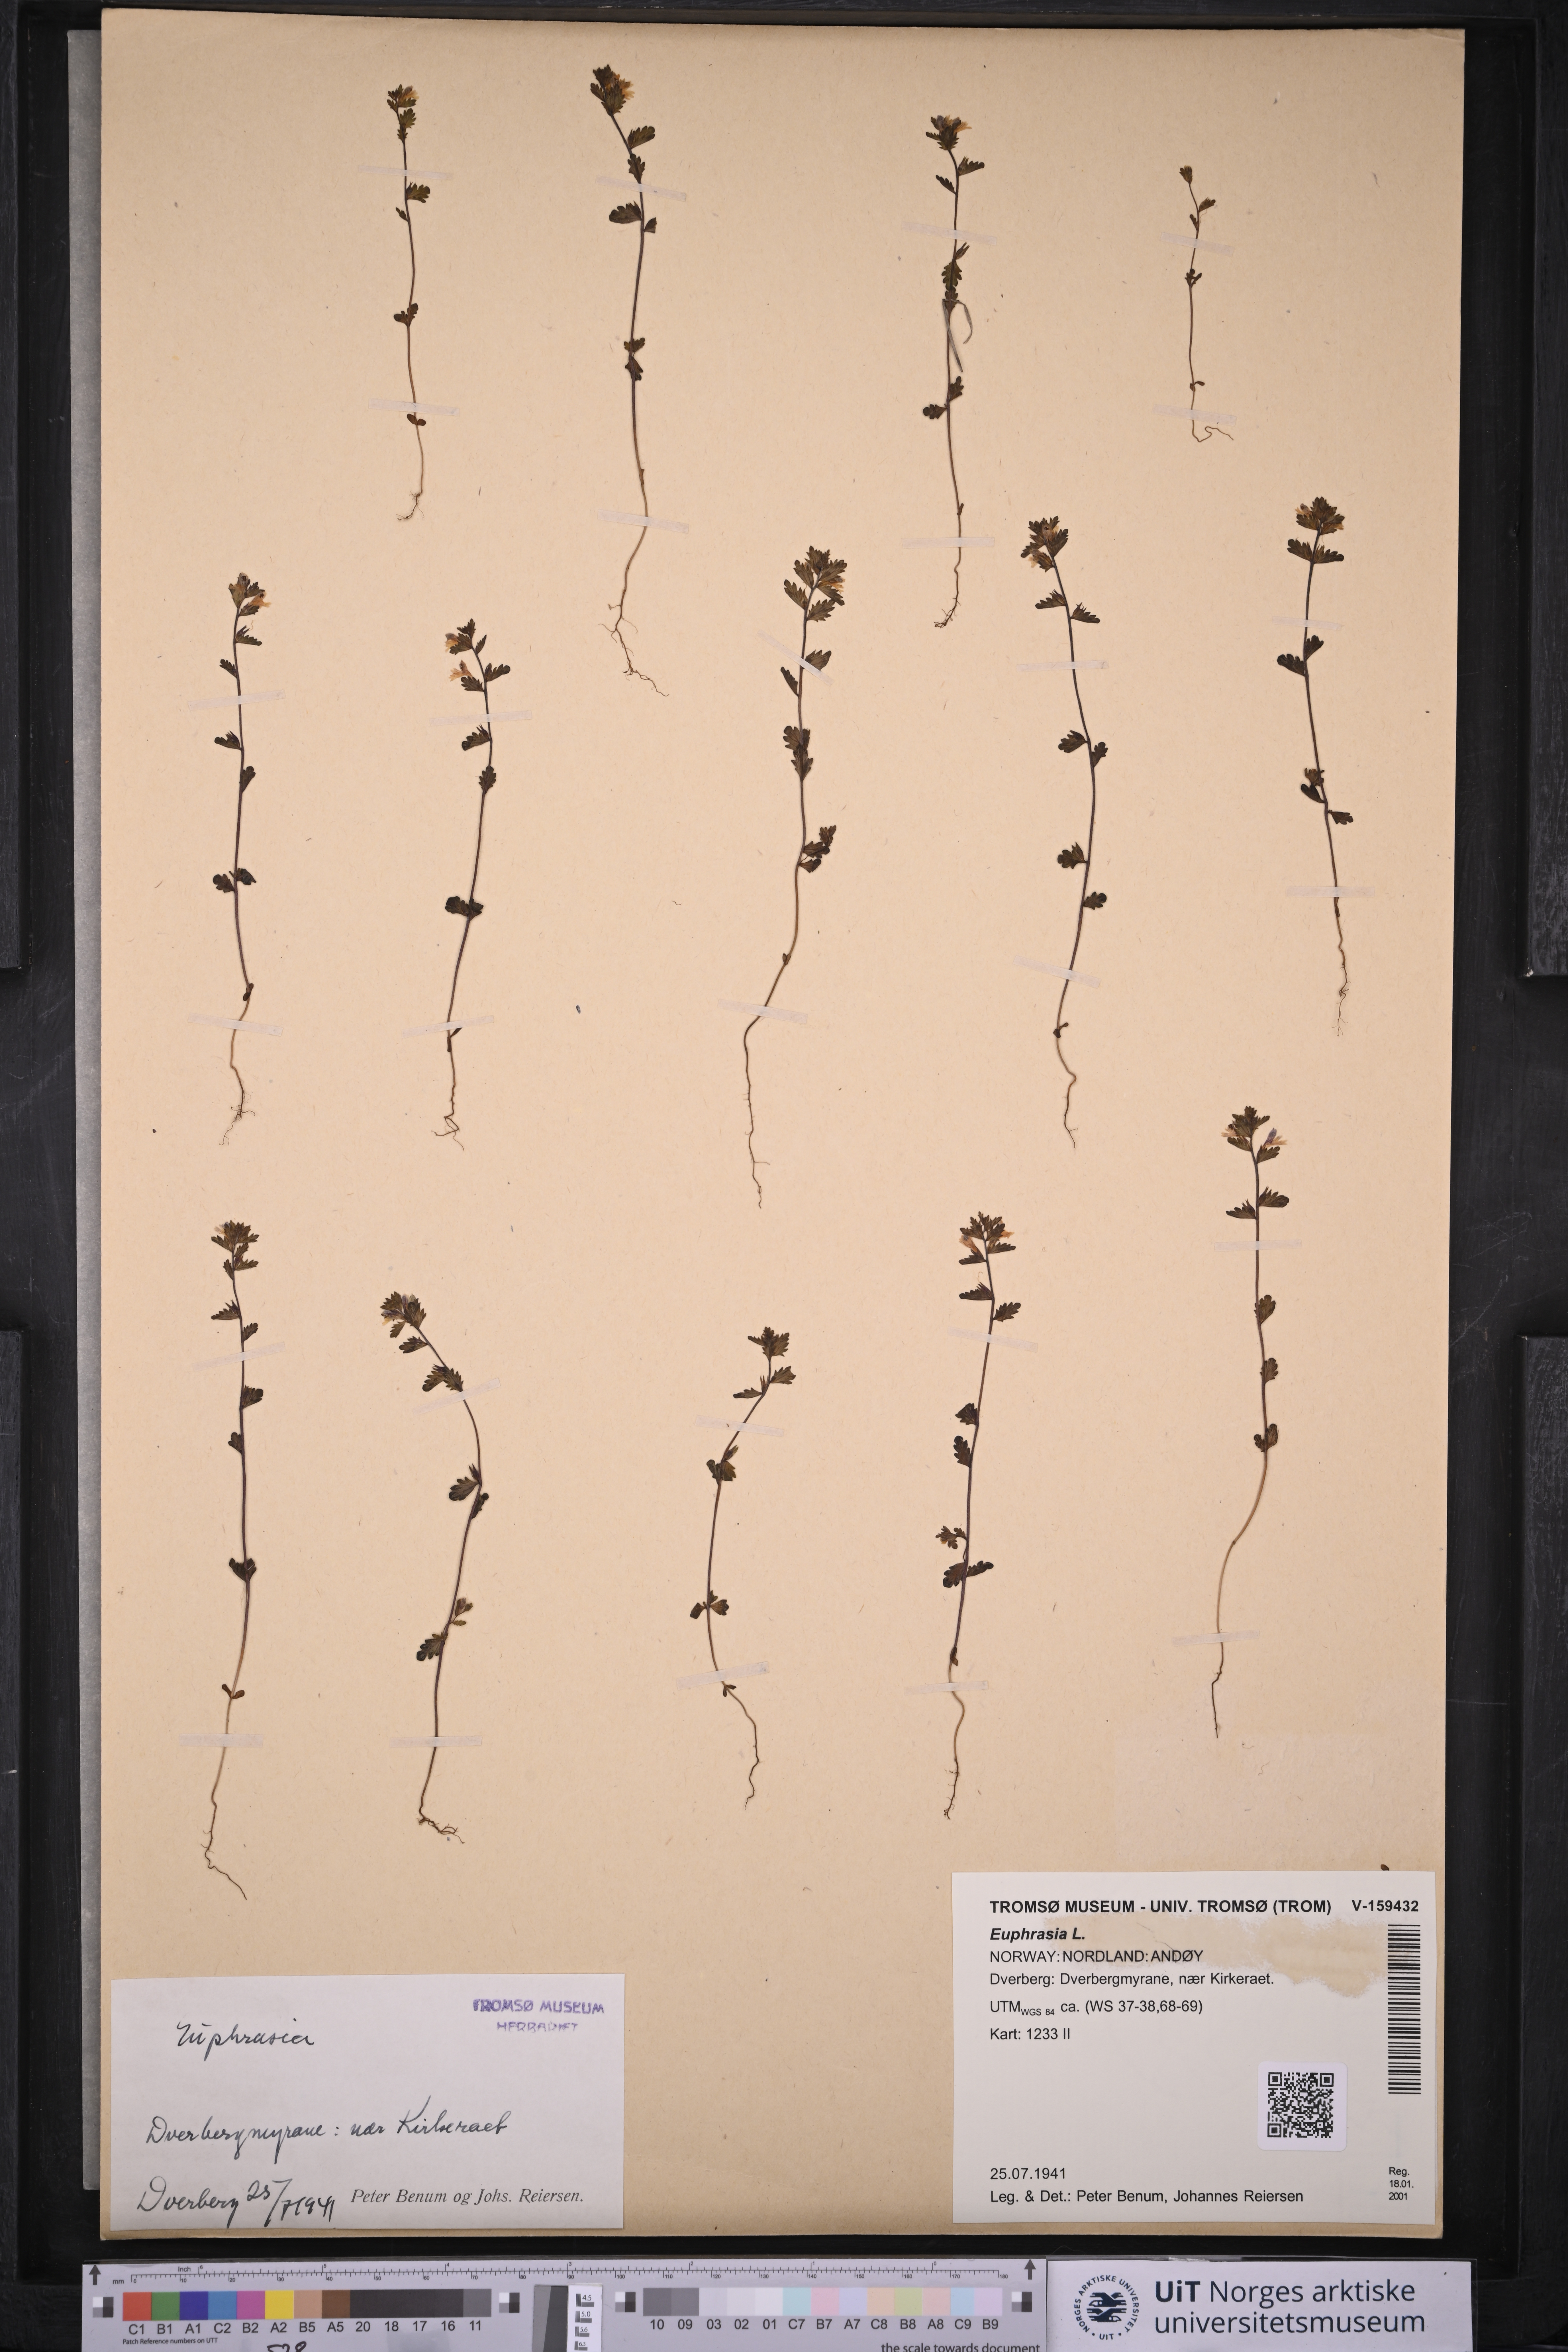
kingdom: Plantae
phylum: Tracheophyta
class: Magnoliopsida
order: Lamiales
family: Orobanchaceae
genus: Euphrasia
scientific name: Euphrasia
